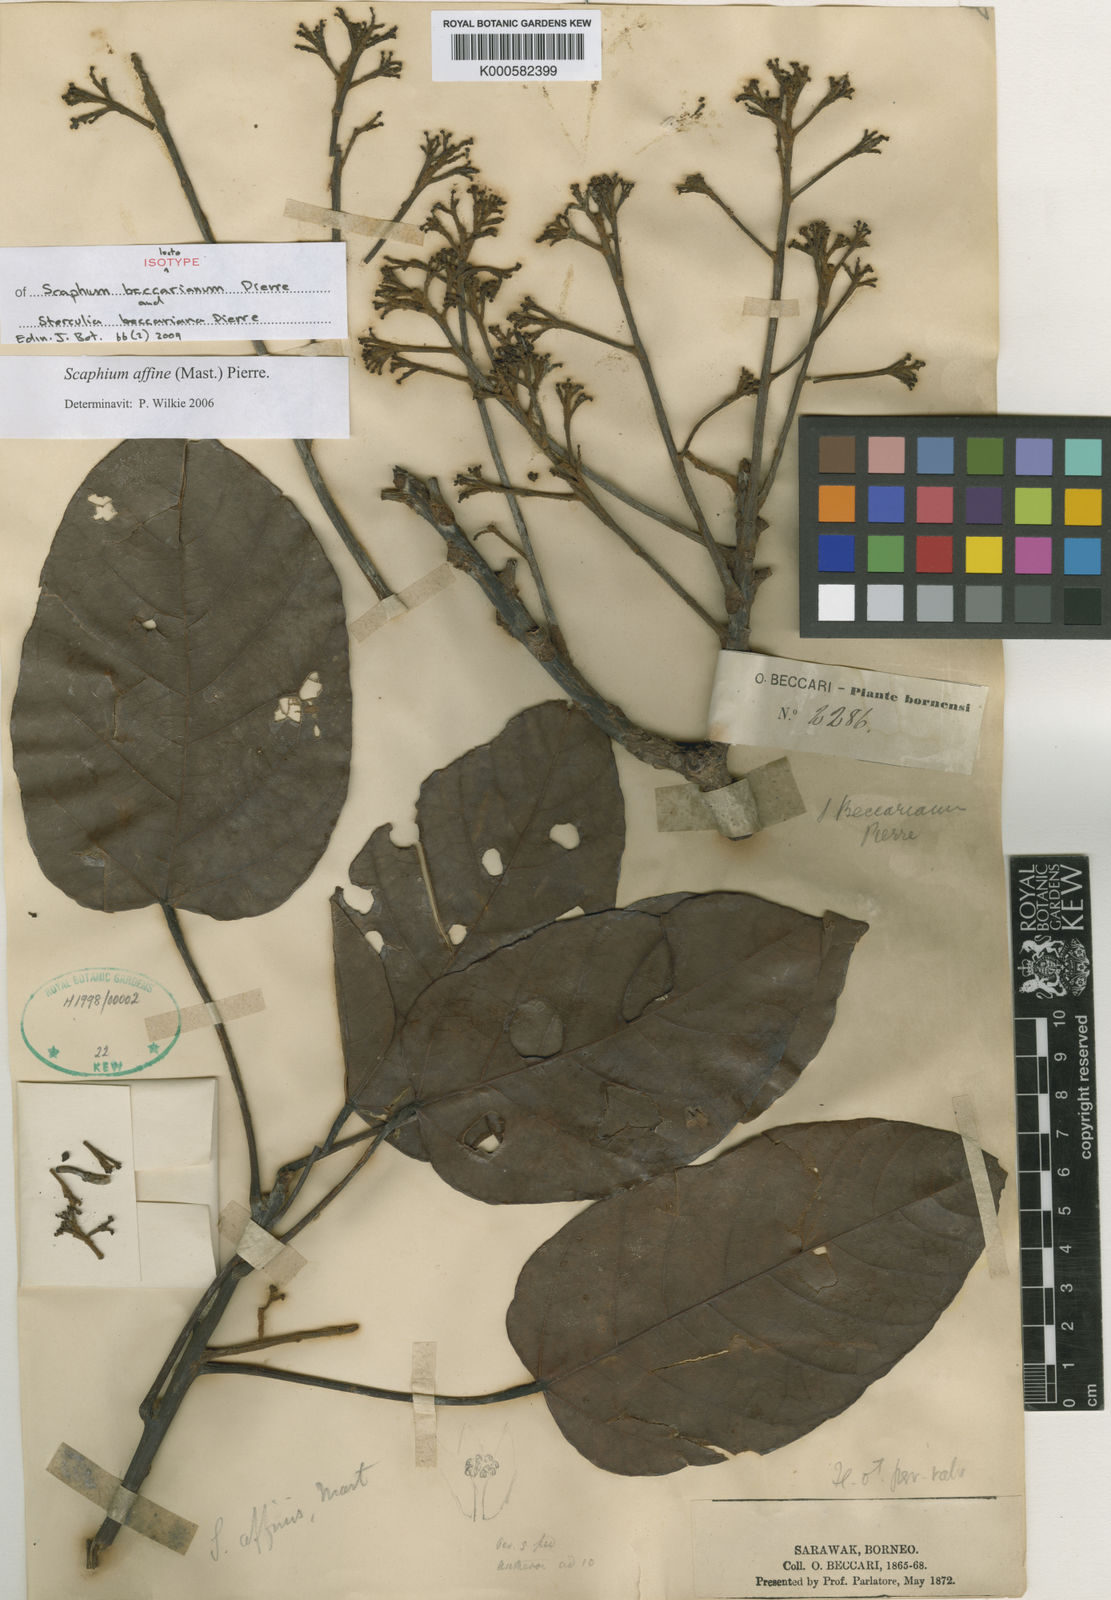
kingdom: Plantae
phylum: Tracheophyta
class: Magnoliopsida
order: Malvales
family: Malvaceae
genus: Scaphium
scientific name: Scaphium affine
